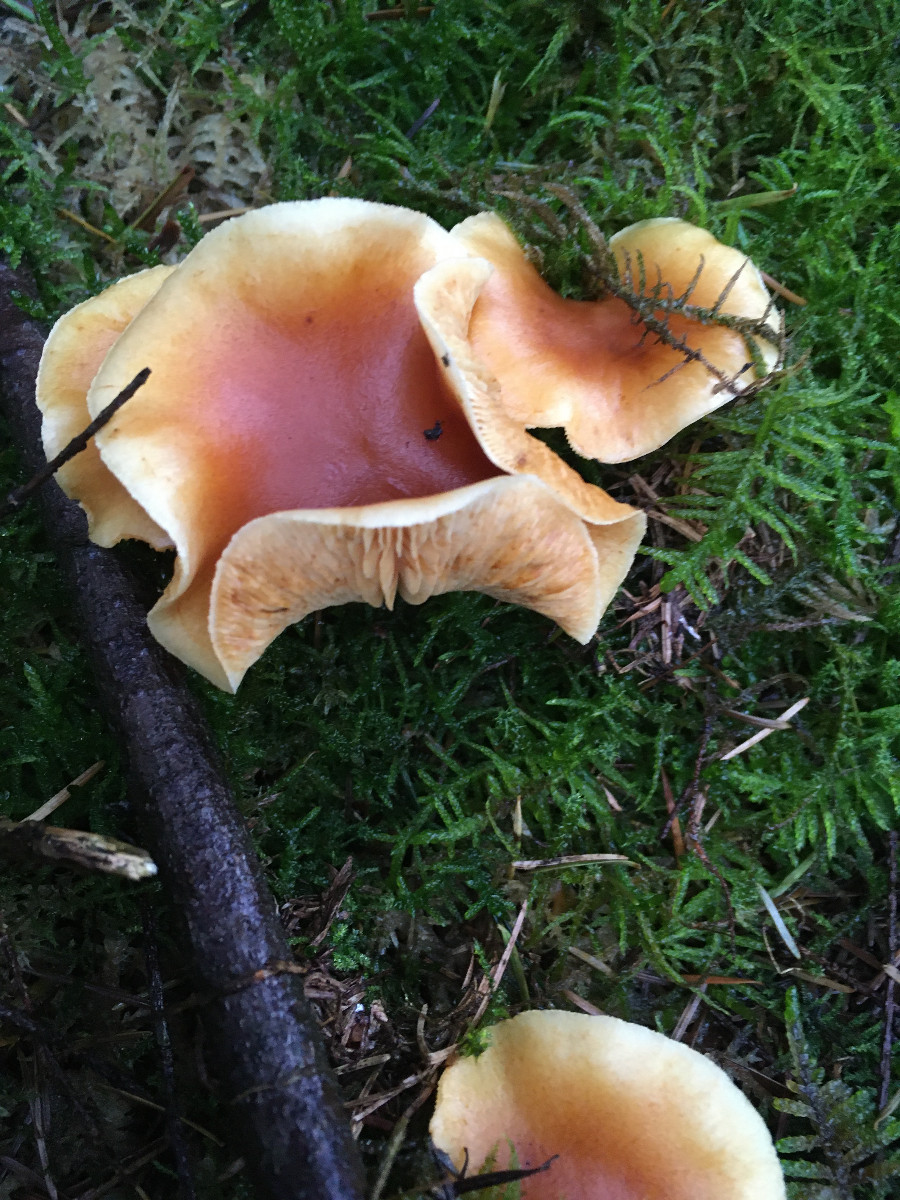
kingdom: Fungi
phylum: Basidiomycota
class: Agaricomycetes
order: Agaricales
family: Hymenogastraceae
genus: Gymnopilus
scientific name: Gymnopilus penetrans
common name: plettet flammehat
